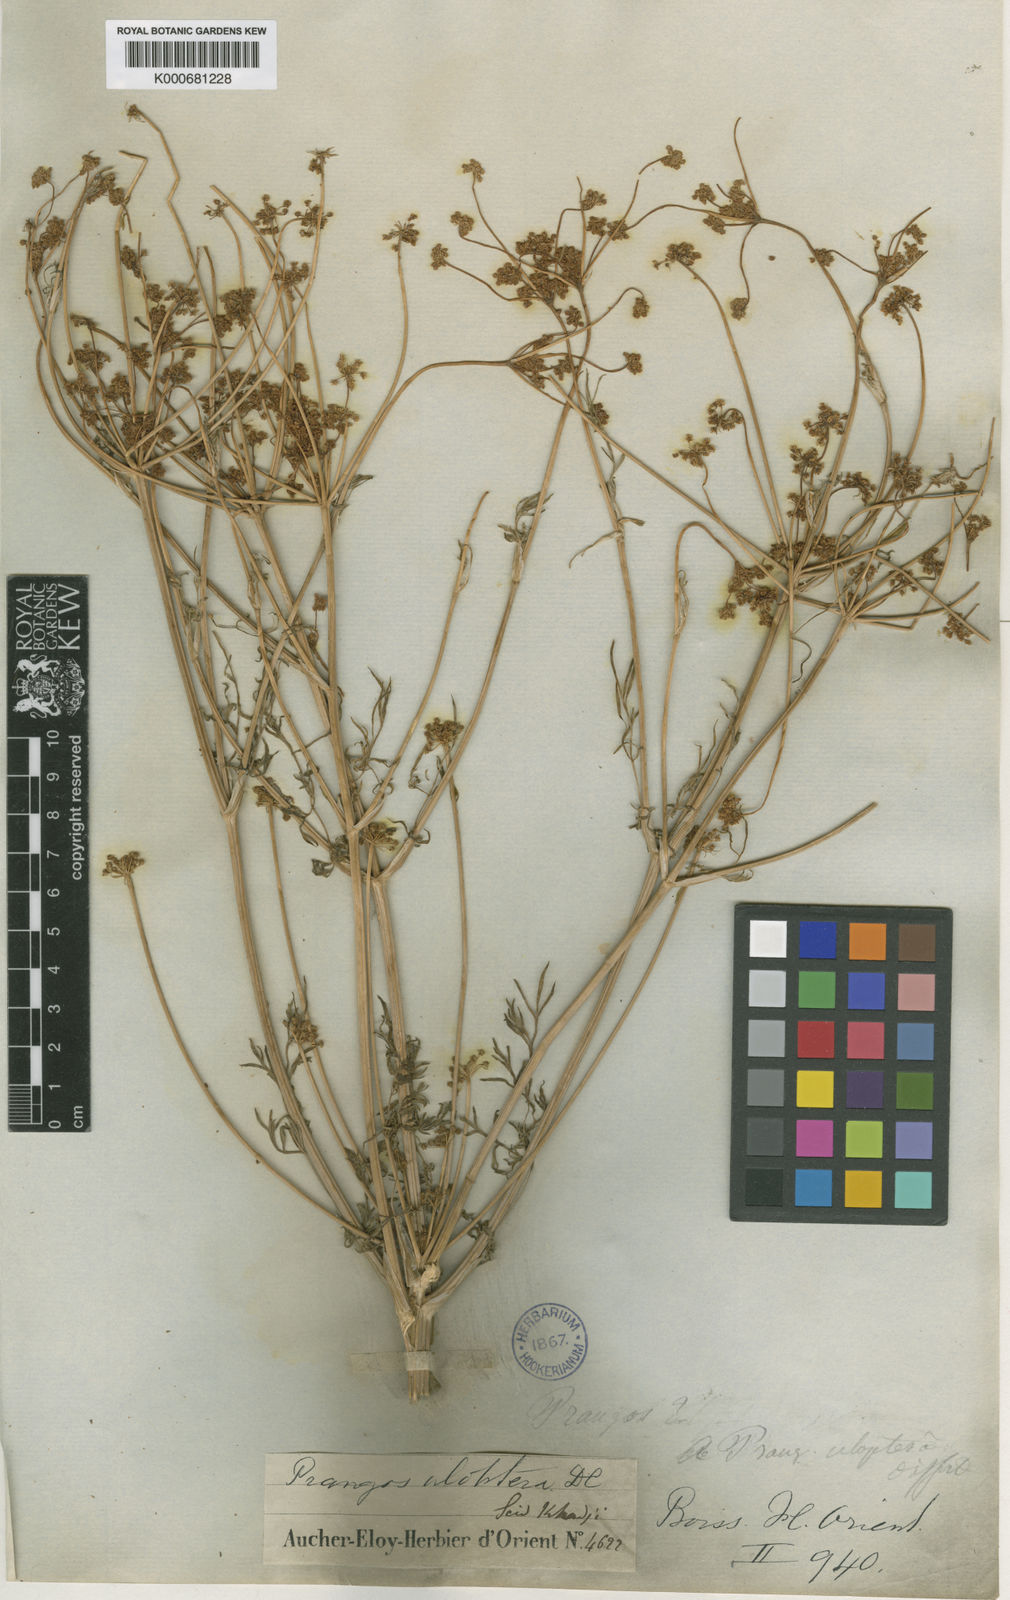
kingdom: Plantae
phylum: Tracheophyta
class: Magnoliopsida
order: Apiales
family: Apiaceae
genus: Prangos
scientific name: Prangos uloptera
